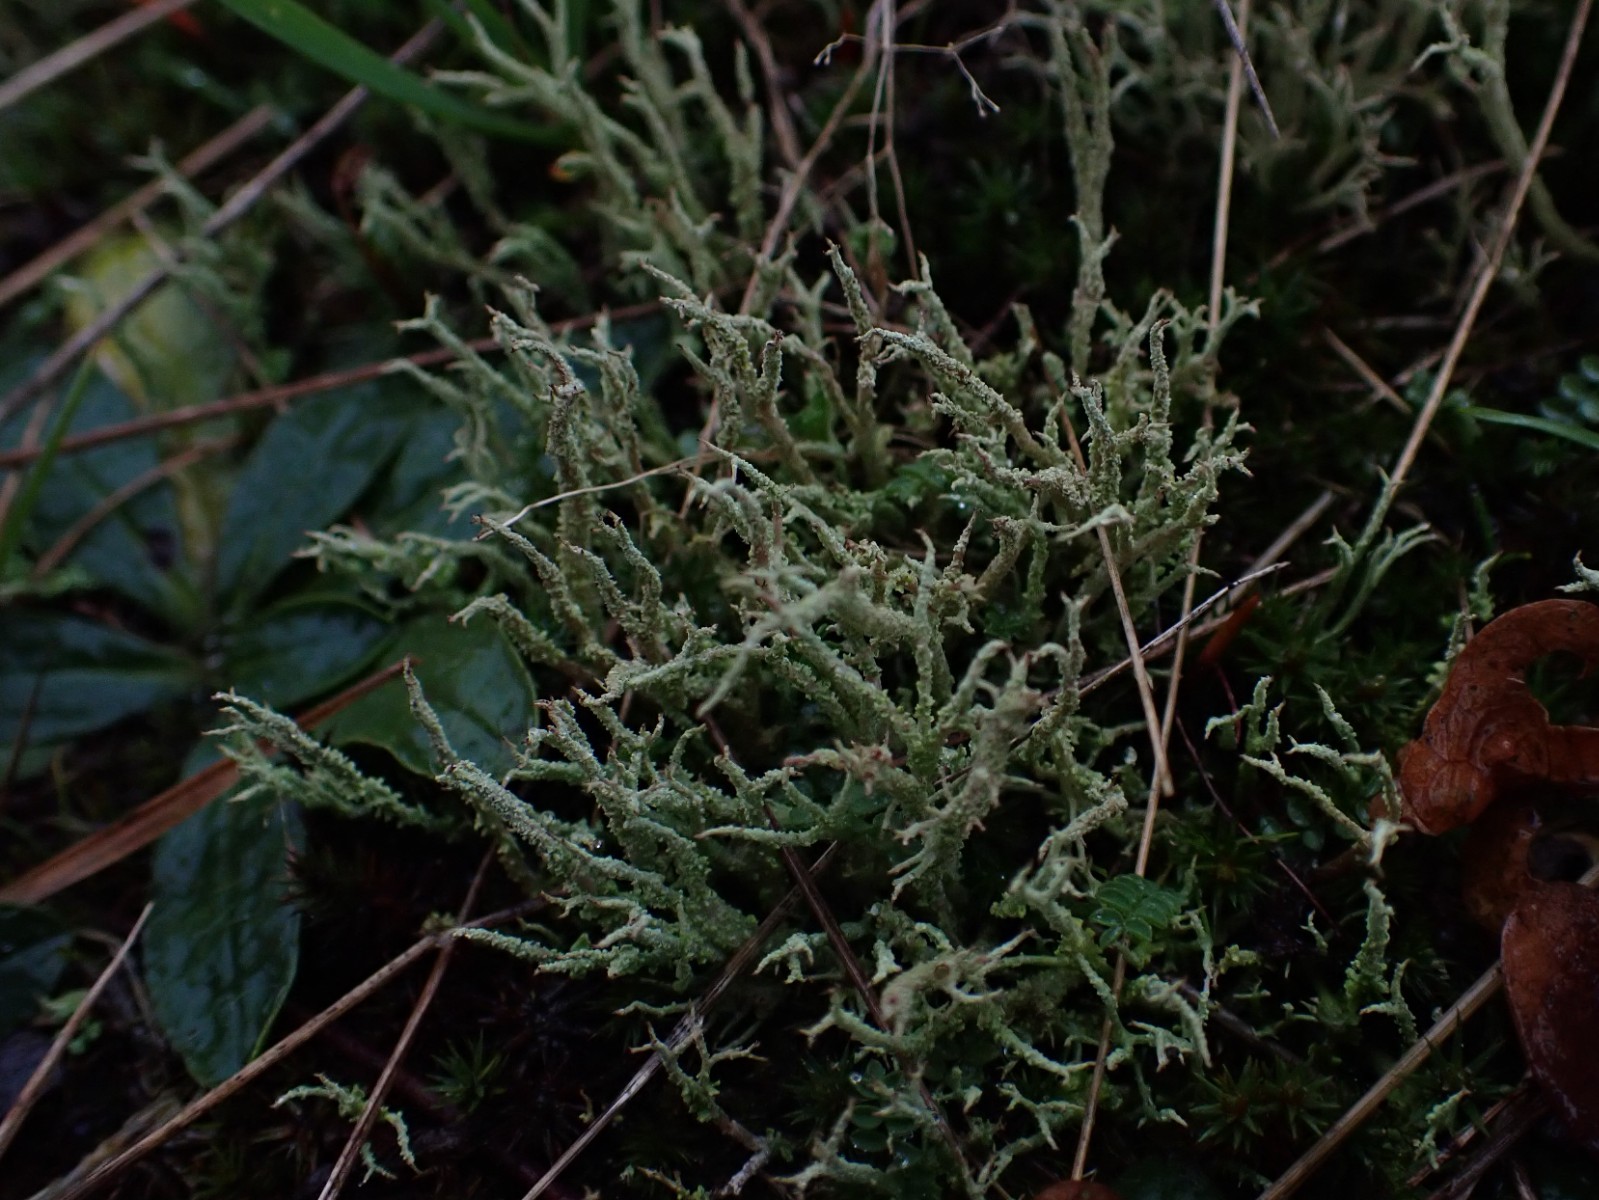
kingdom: Fungi
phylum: Ascomycota
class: Lecanoromycetes
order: Lecanorales
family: Cladoniaceae
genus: Cladonia
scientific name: Cladonia scabriuscula
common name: ru bægerlav
